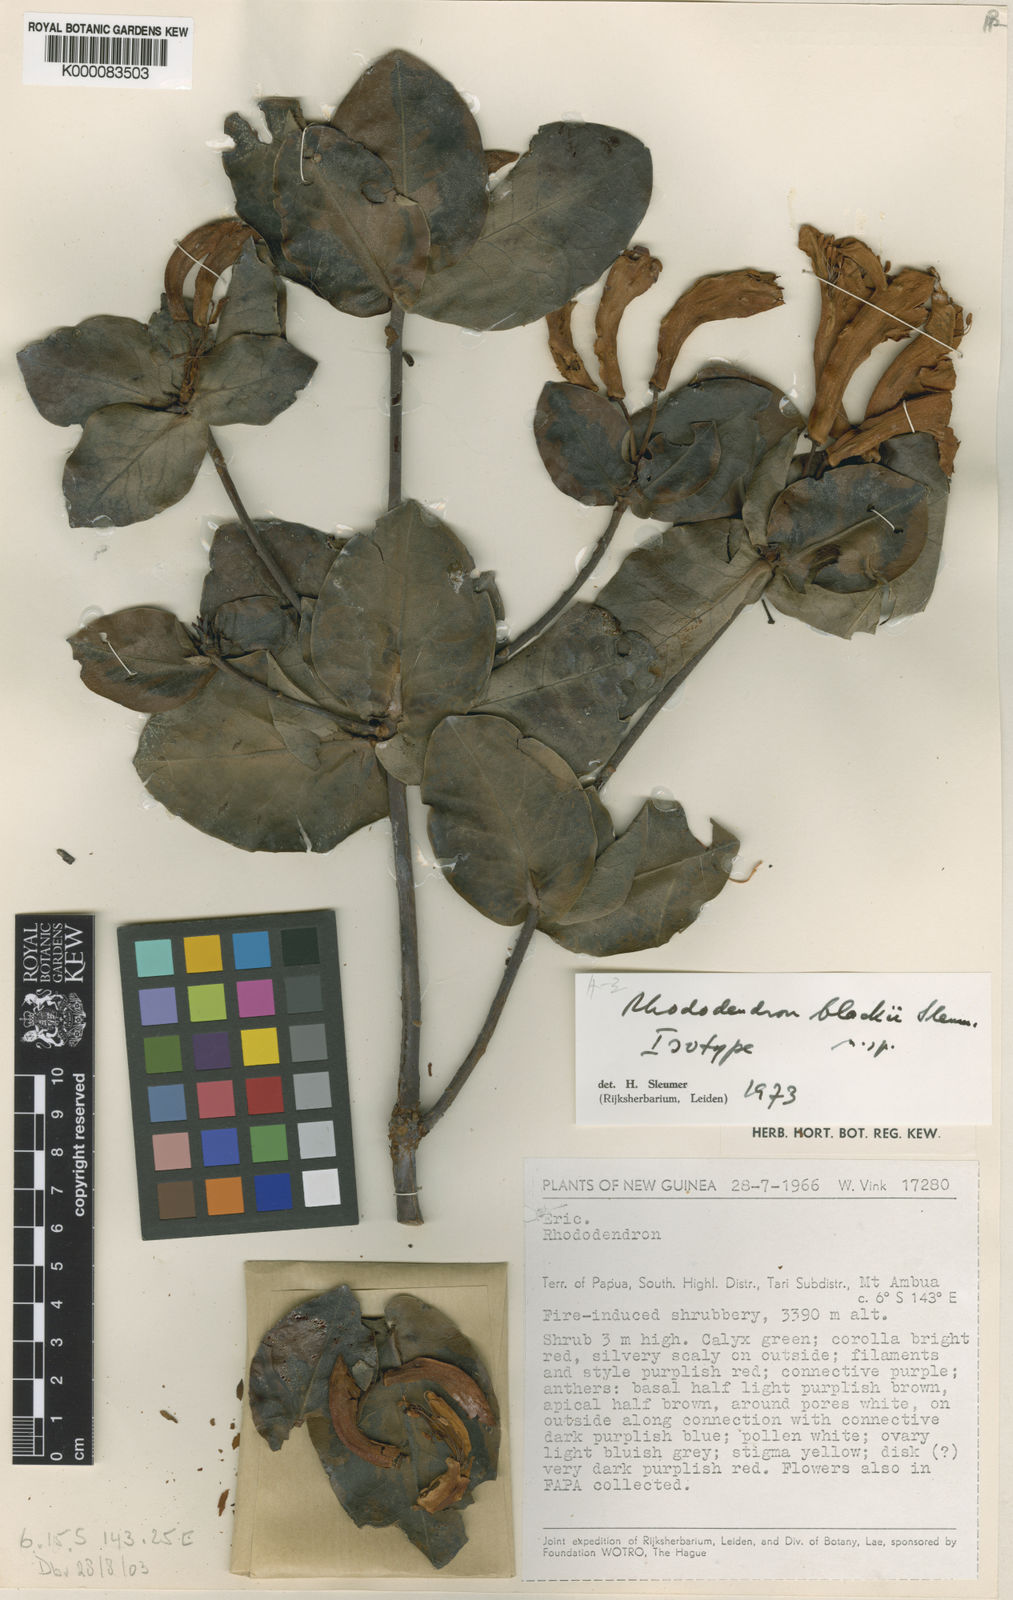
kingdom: Plantae
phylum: Tracheophyta
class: Magnoliopsida
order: Ericales
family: Ericaceae
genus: Rhododendron
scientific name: Rhododendron blackii
